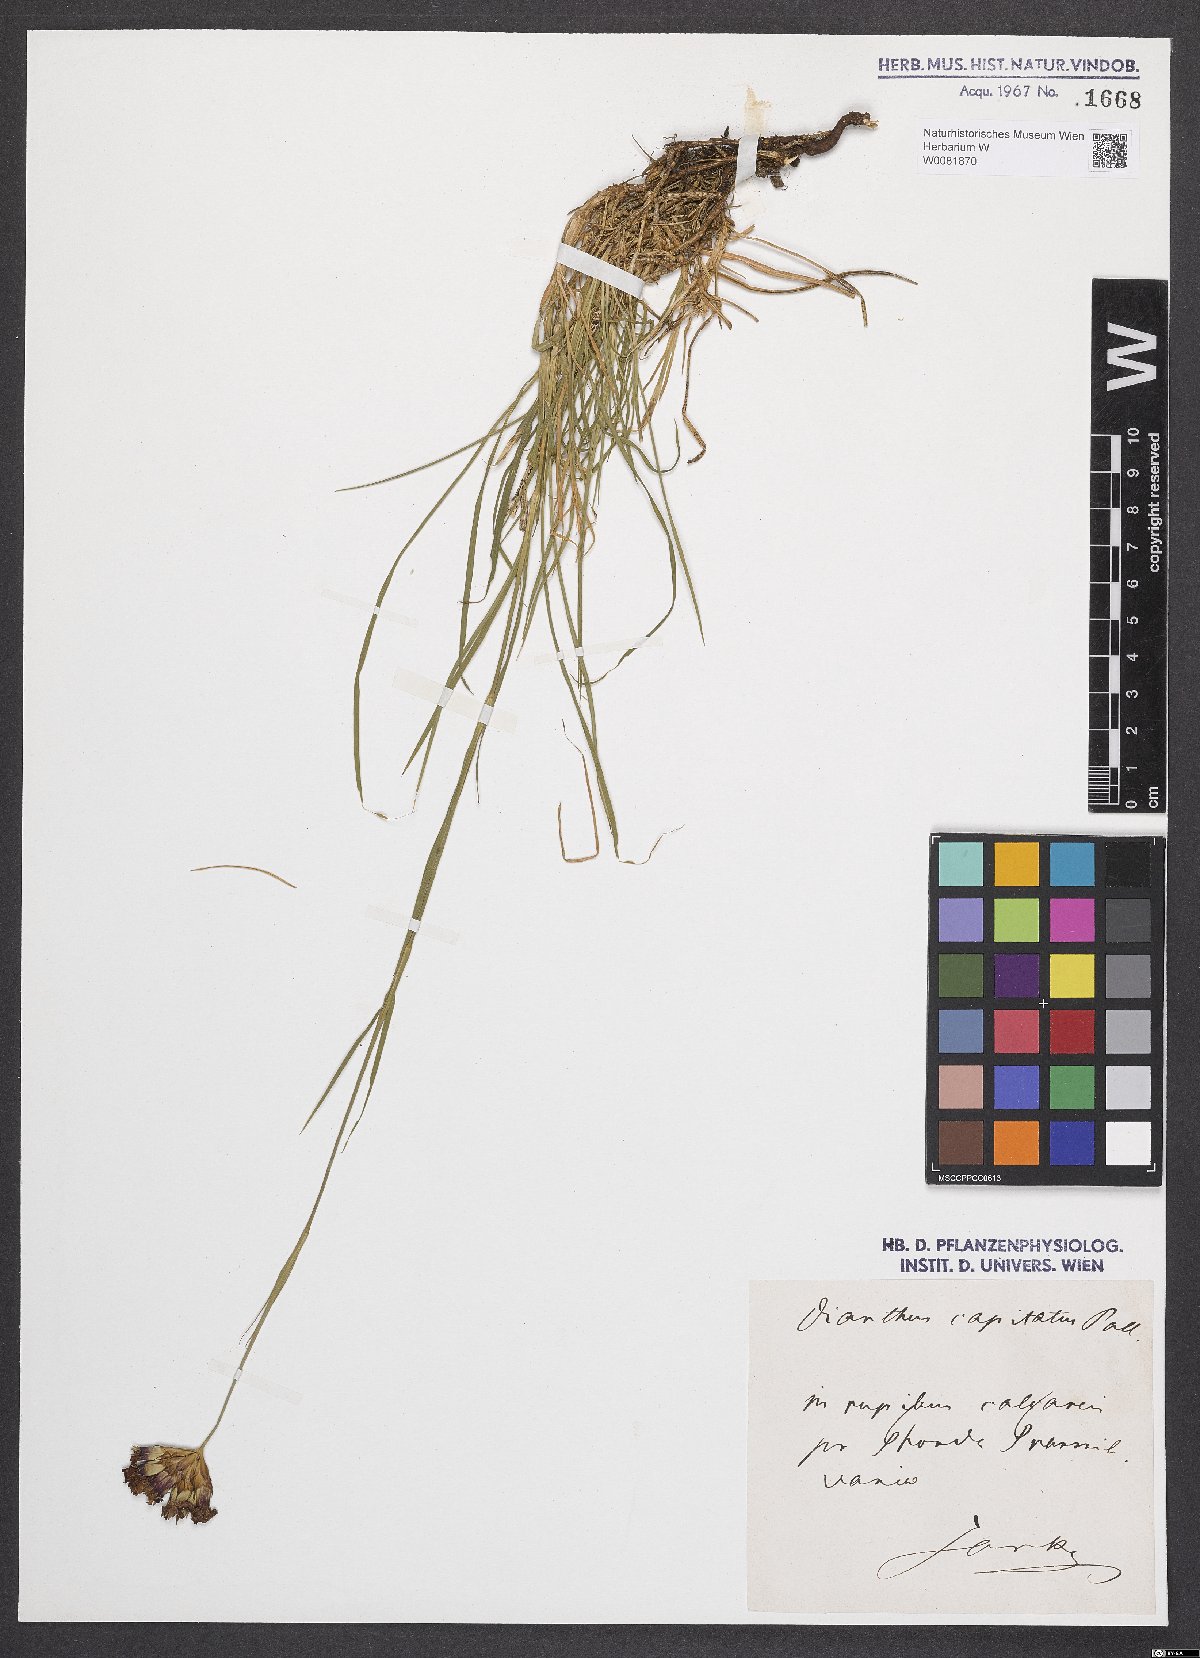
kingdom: Plantae
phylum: Tracheophyta
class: Magnoliopsida
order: Caryophyllales
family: Caryophyllaceae
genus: Dianthus
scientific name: Dianthus capitatus
